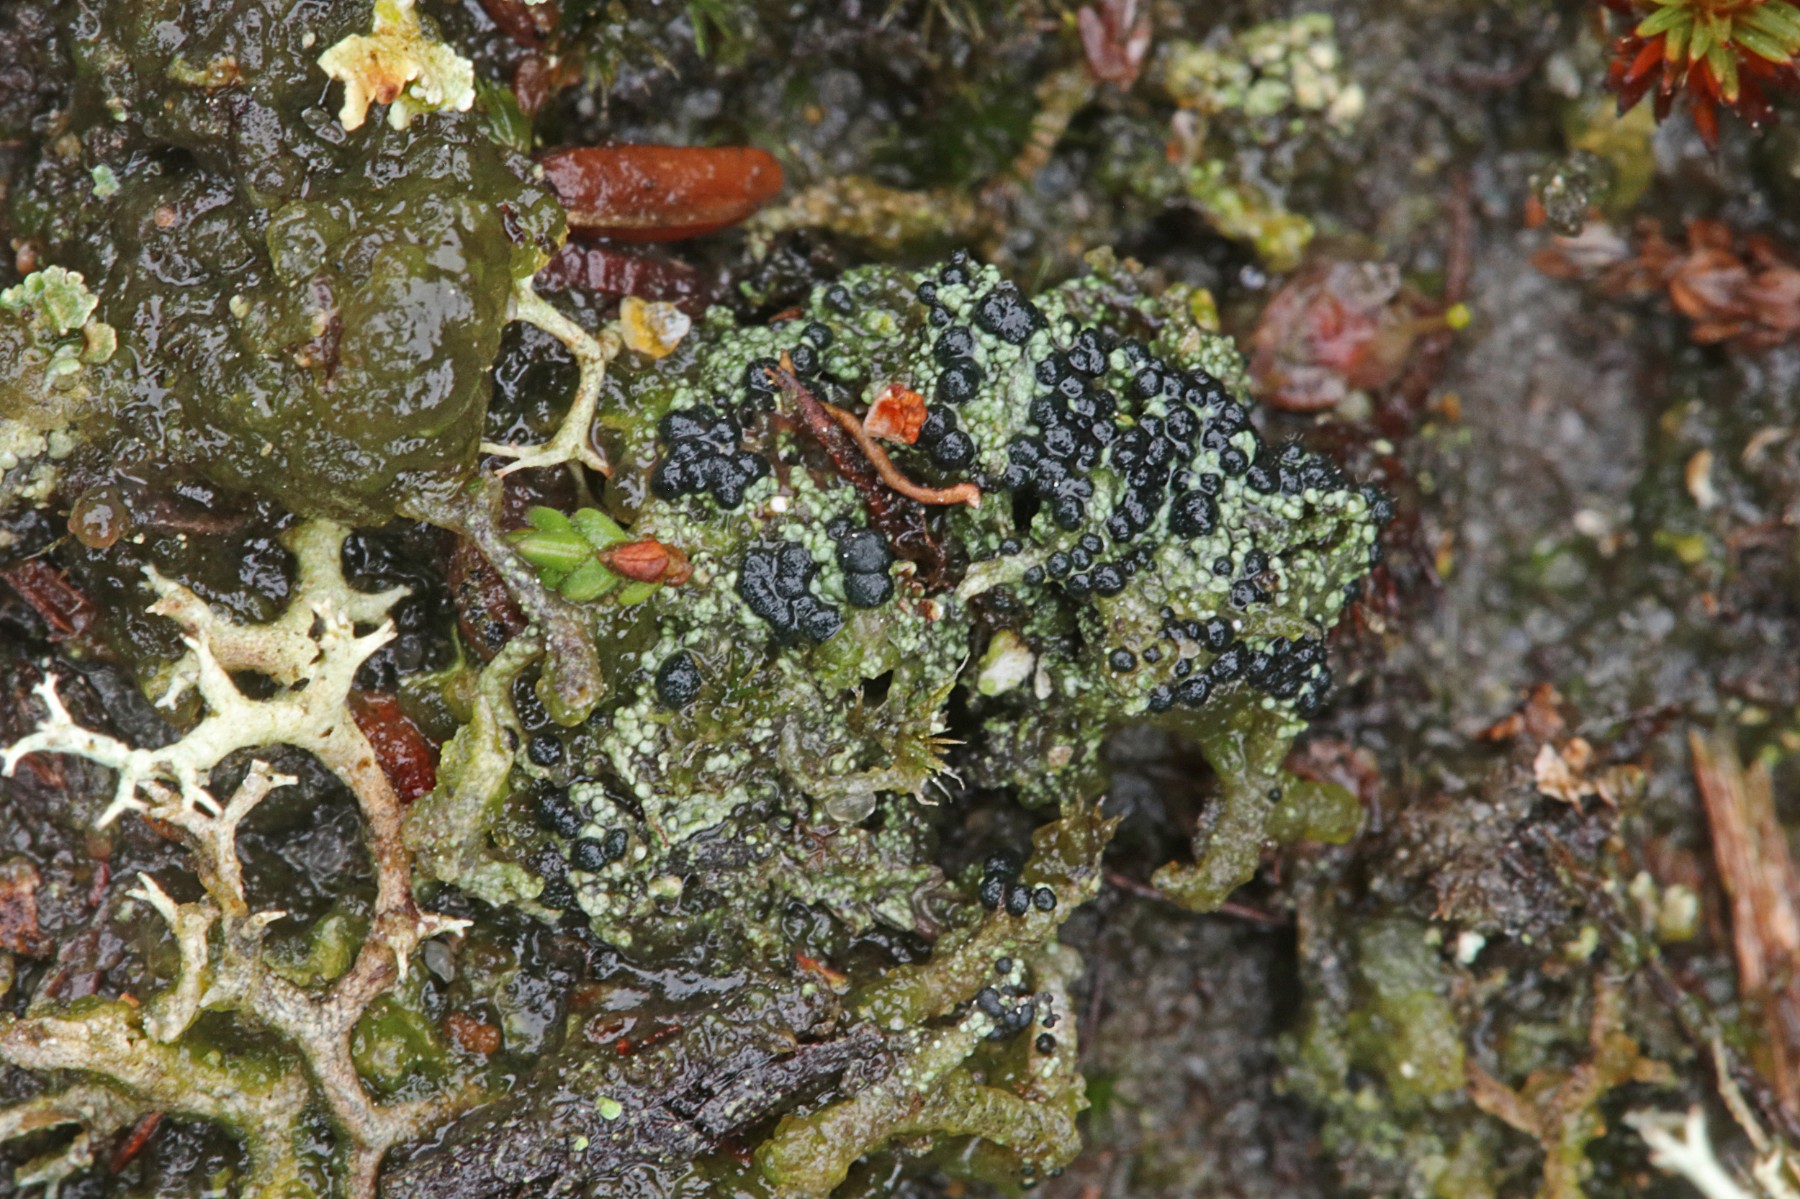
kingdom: Fungi
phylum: Ascomycota
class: Lecanoromycetes
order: Lecanorales
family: Byssolomataceae
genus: Micarea
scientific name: Micarea lignaria
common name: tørve-knaplav
